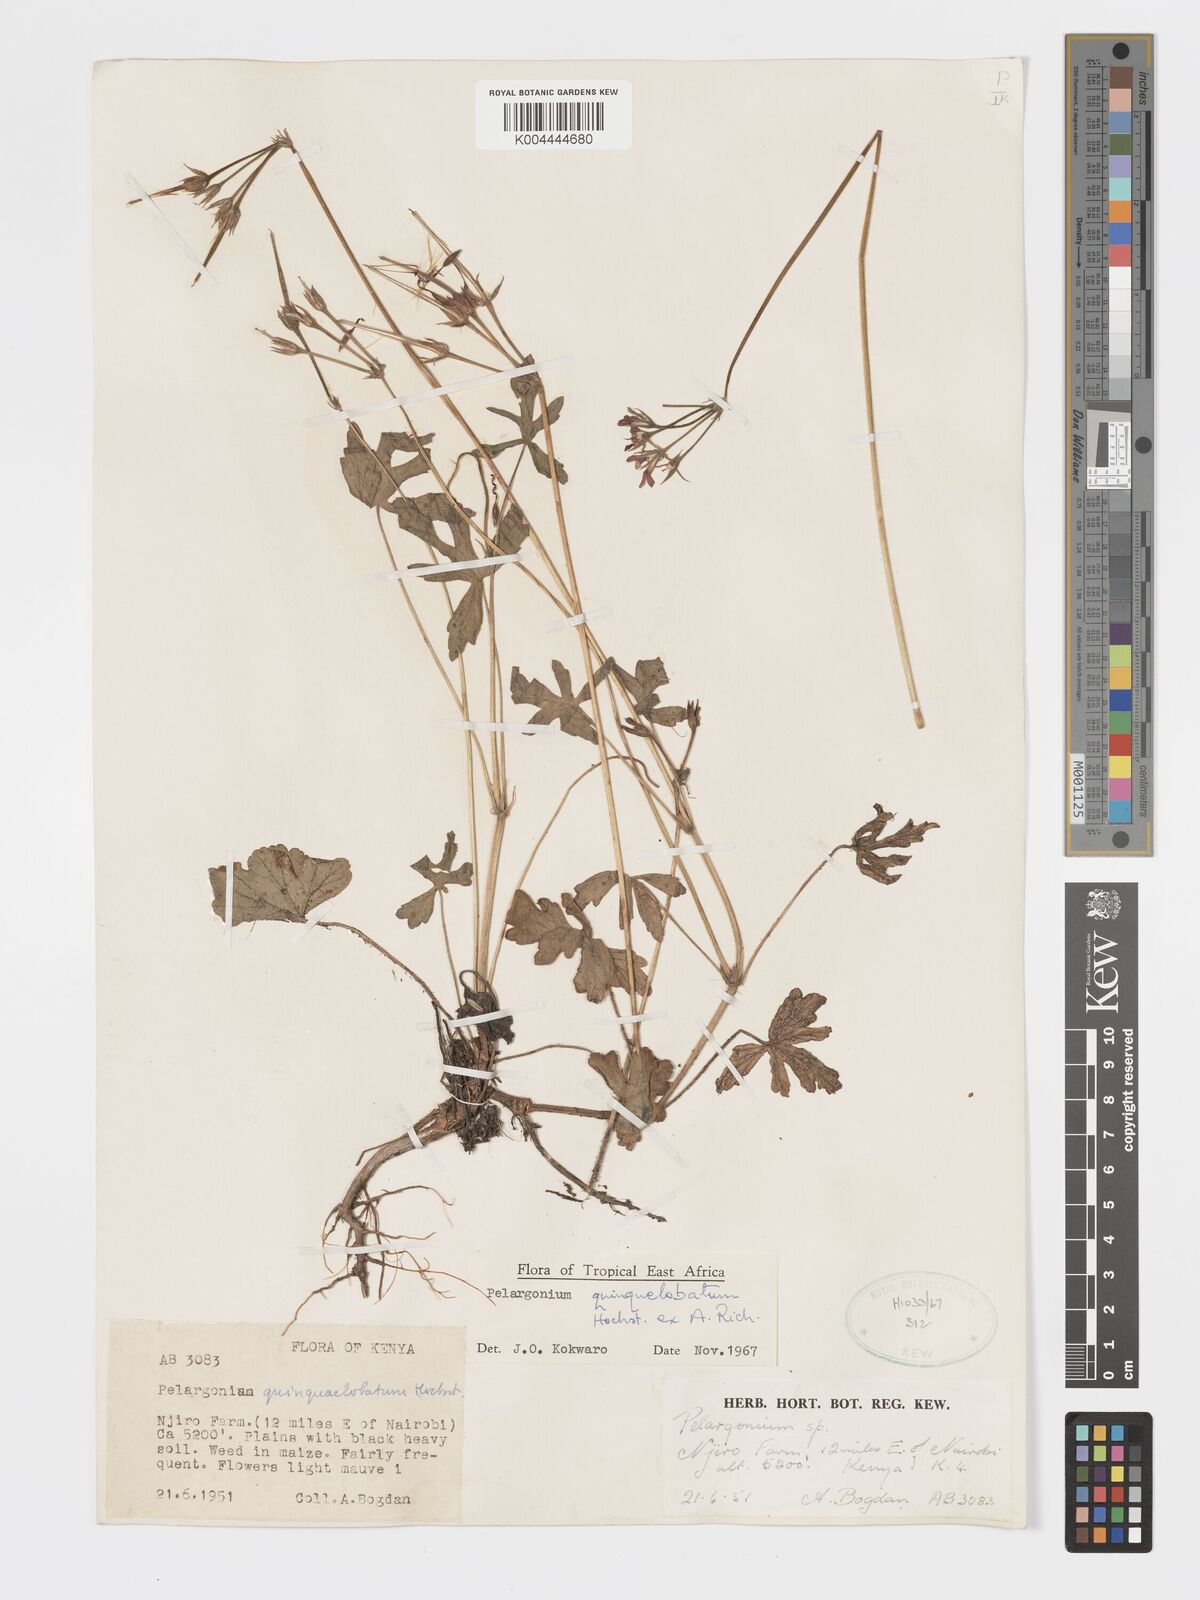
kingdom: Plantae
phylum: Tracheophyta
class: Magnoliopsida
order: Geraniales
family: Geraniaceae
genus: Pelargonium
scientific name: Pelargonium quinquelobatum
